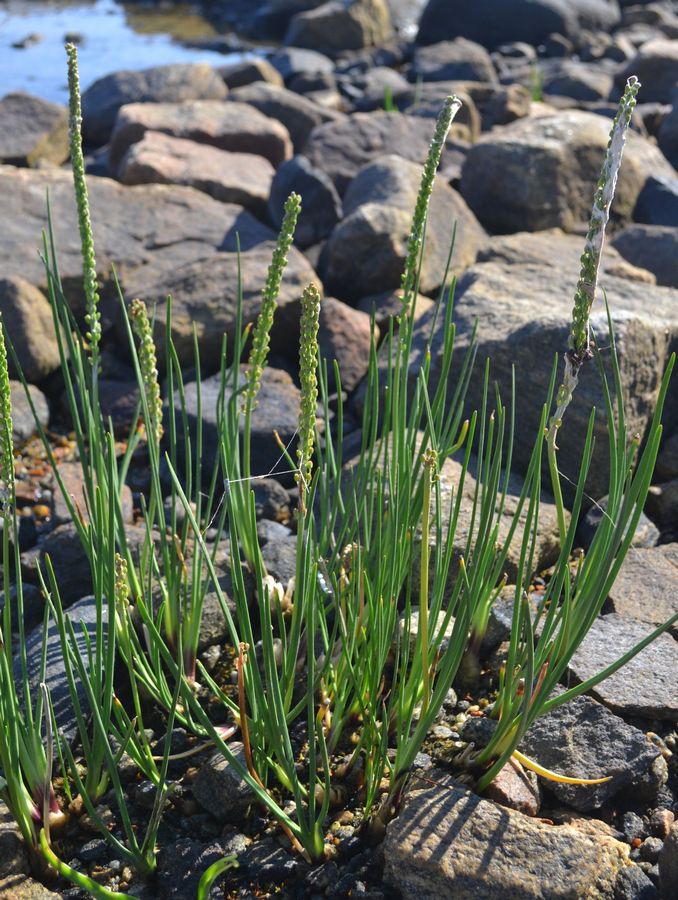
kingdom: Plantae
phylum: Tracheophyta
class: Liliopsida
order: Alismatales
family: Juncaginaceae
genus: Triglochin
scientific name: Triglochin maritima
